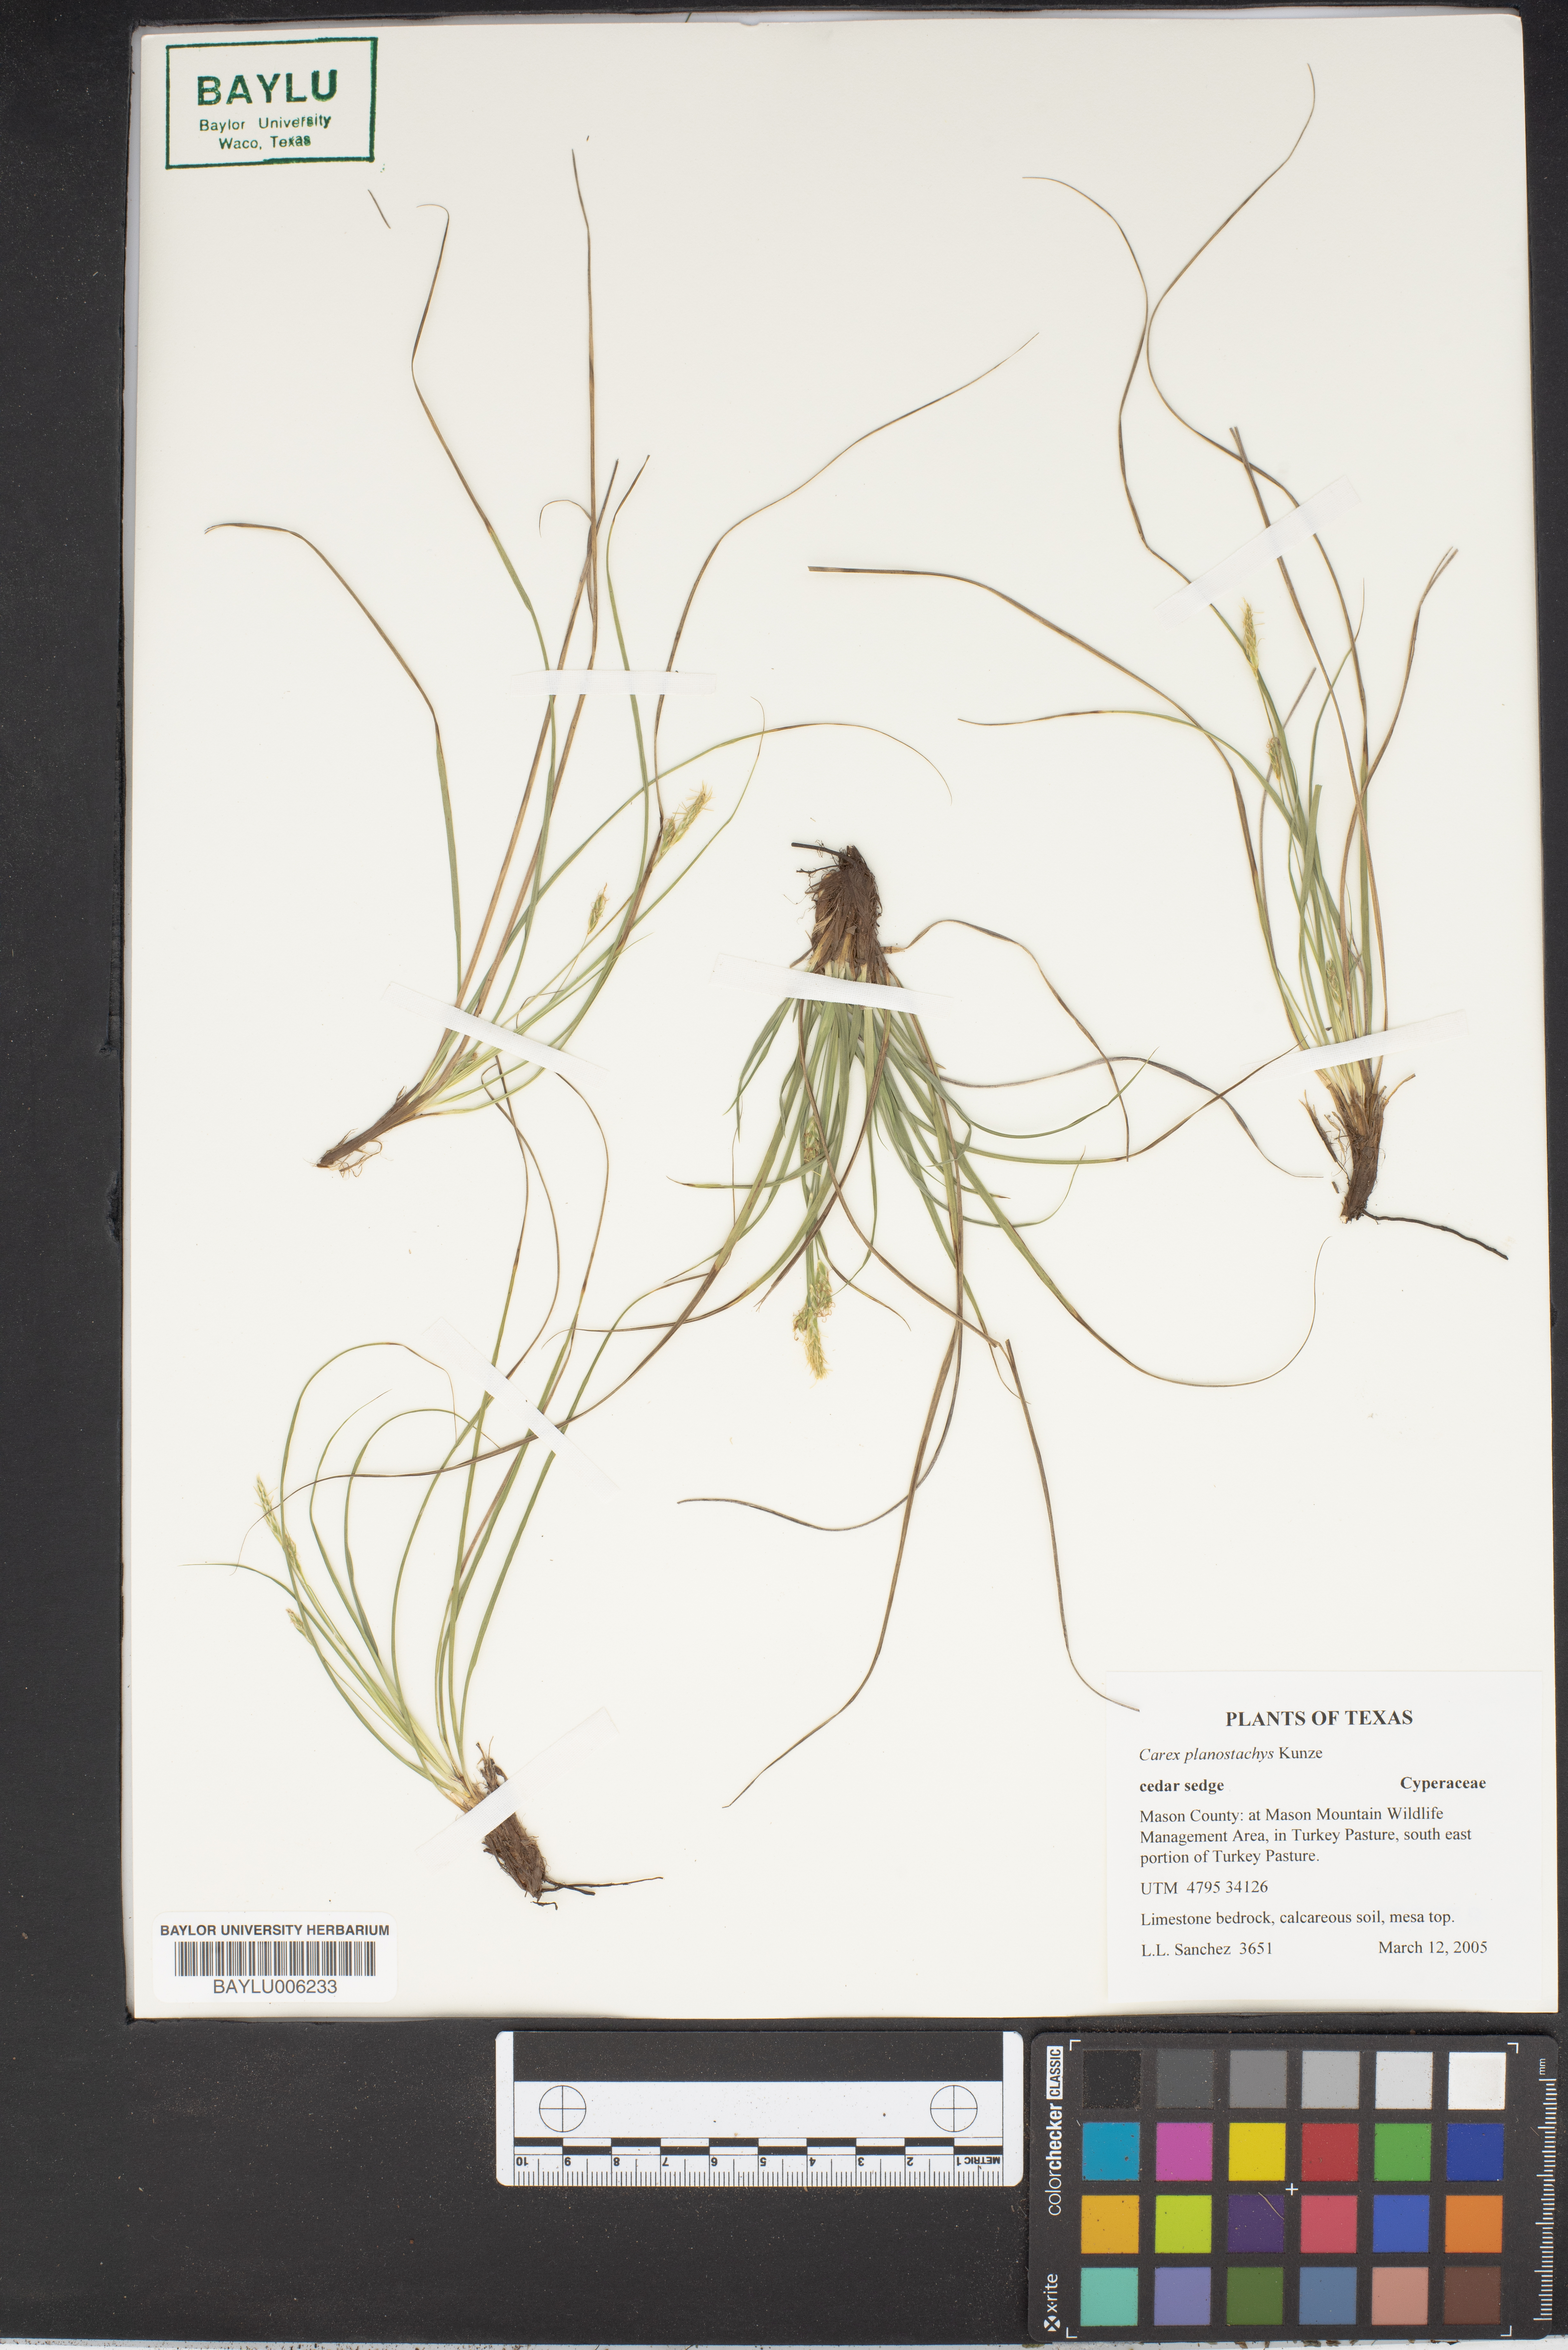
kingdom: Plantae
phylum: Tracheophyta
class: Liliopsida
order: Poales
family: Cyperaceae
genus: Carex
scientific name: Carex planostachys
